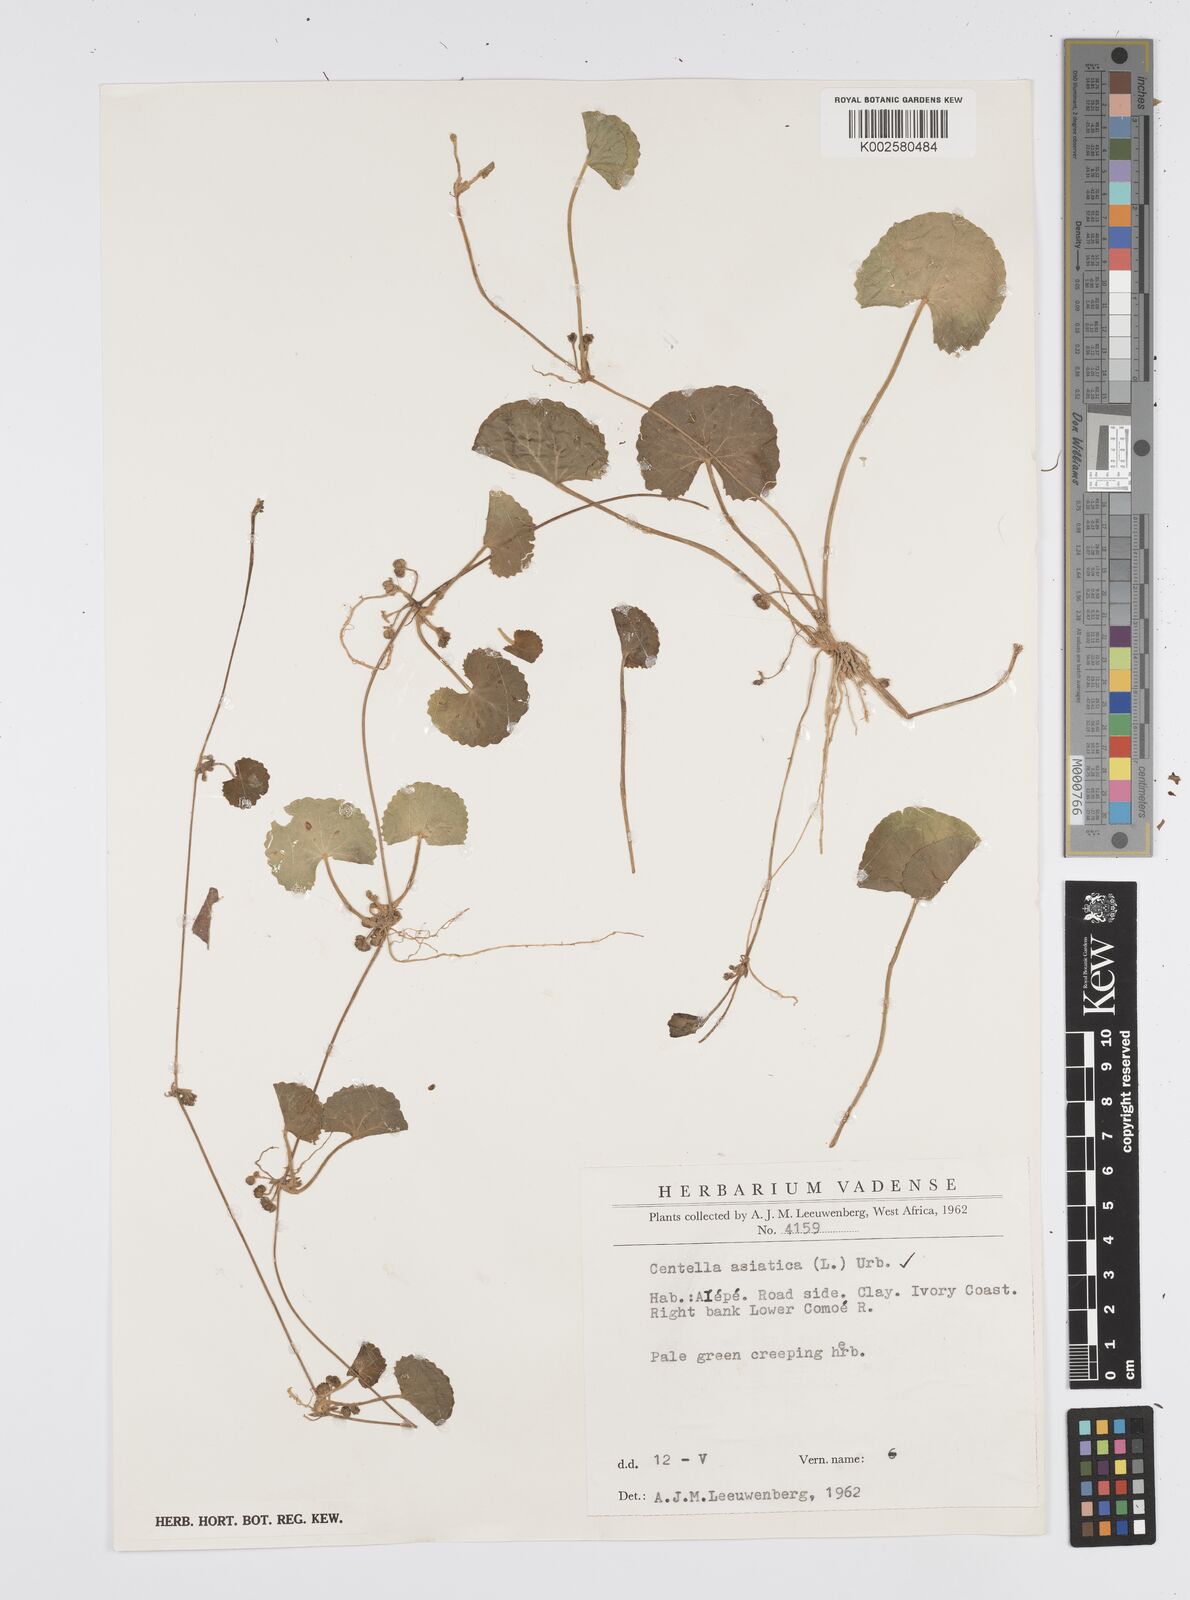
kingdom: Plantae
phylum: Tracheophyta
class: Magnoliopsida
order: Apiales
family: Apiaceae
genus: Centella
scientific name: Centella asiatica
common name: Spadeleaf
